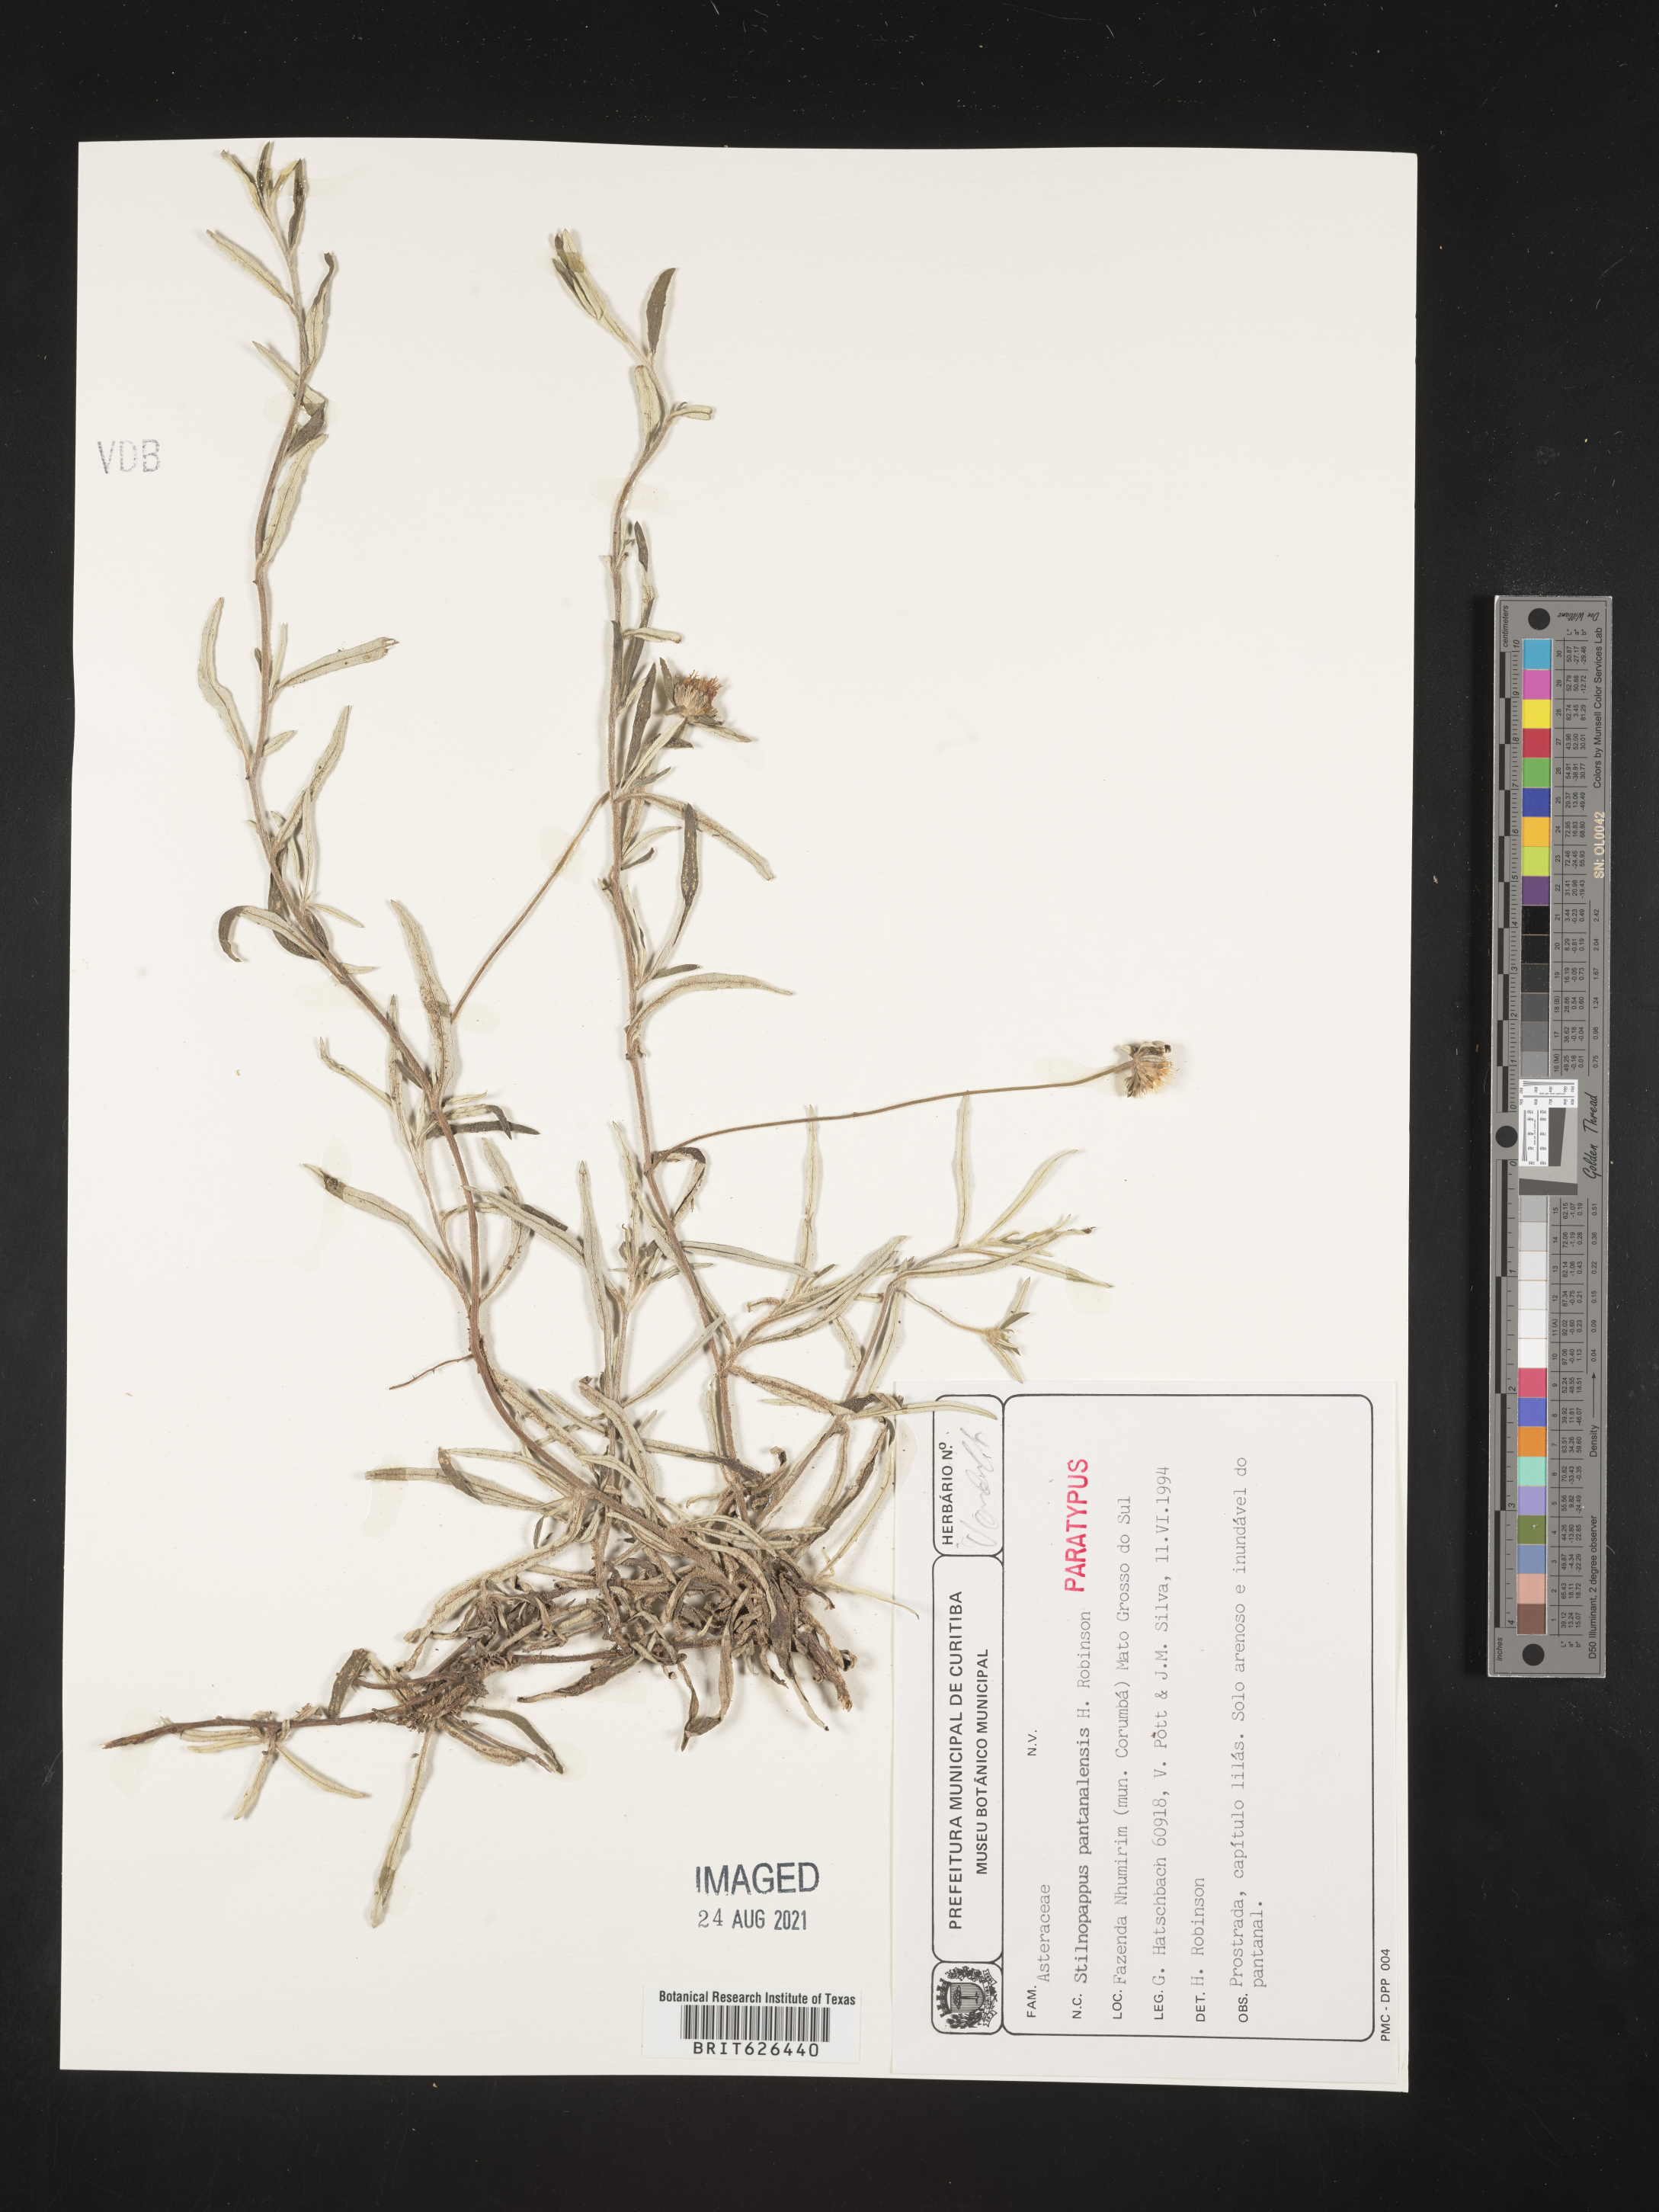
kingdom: Plantae
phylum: Tracheophyta
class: Magnoliopsida
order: Asterales
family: Asteraceae
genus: Stilpnopappus
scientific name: Stilpnopappus pantanalensis
